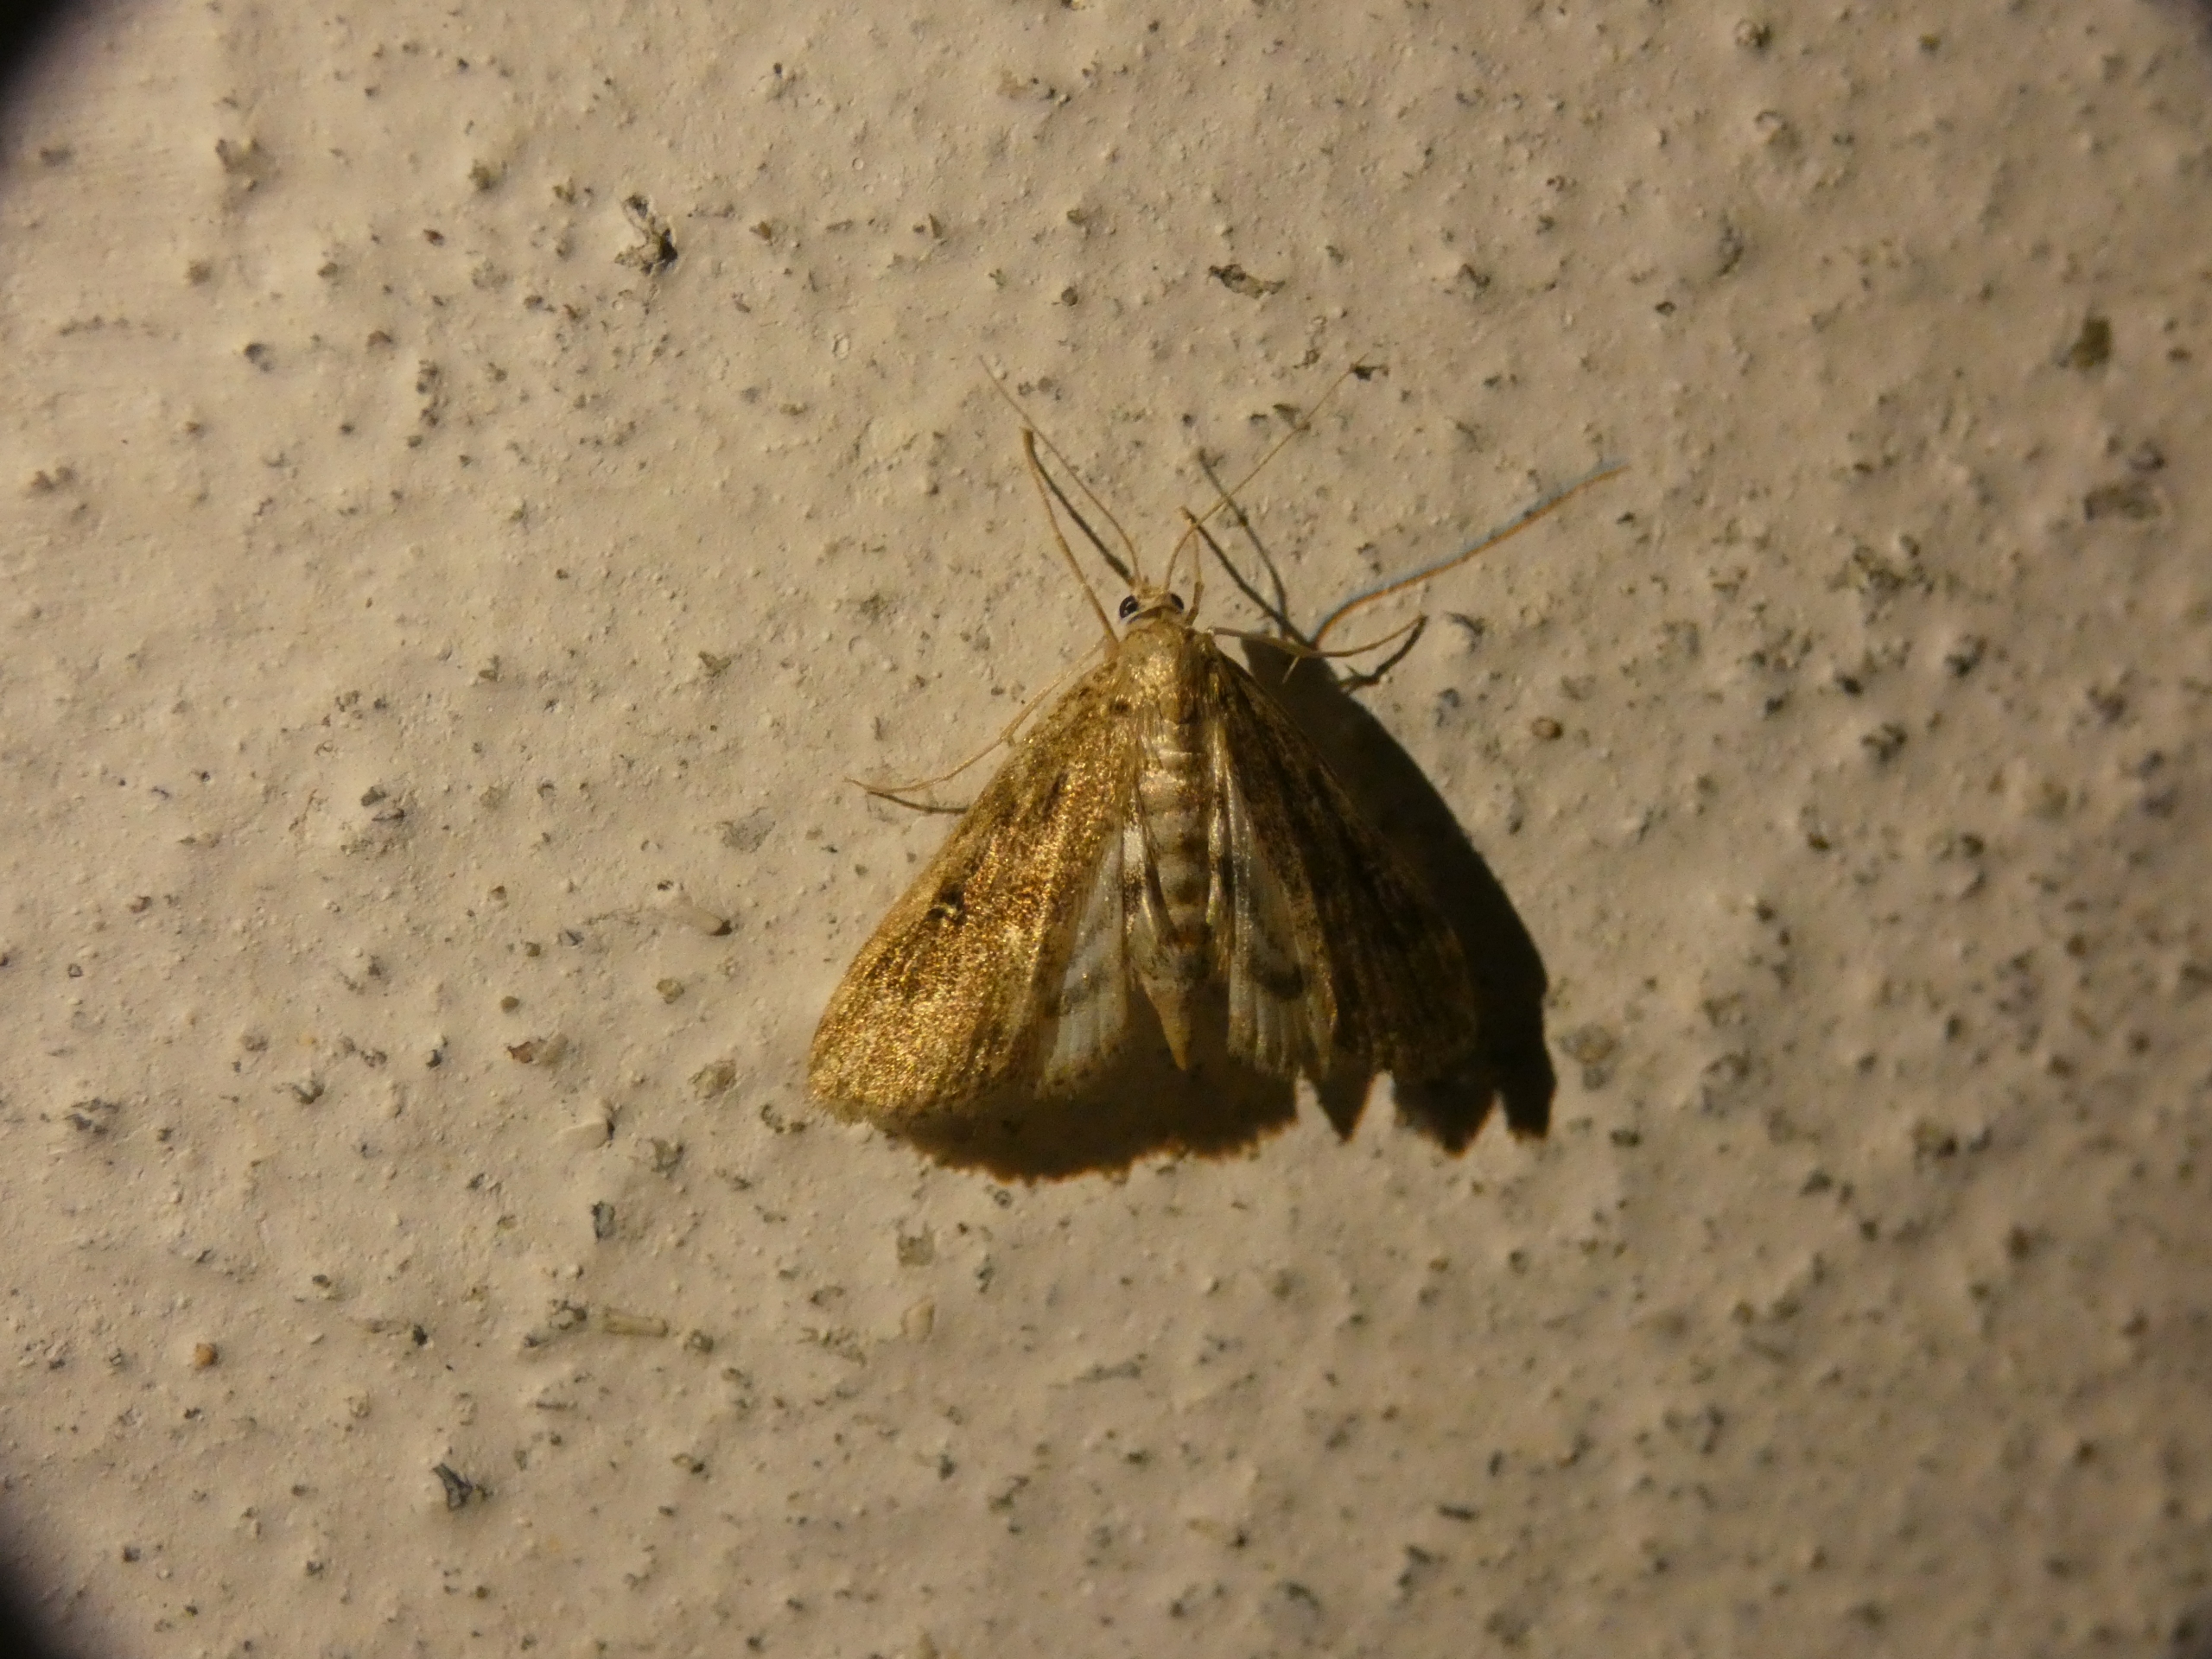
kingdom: Animalia
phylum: Arthropoda
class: Insecta
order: Lepidoptera
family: Crambidae
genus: Parapoynx
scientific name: Parapoynx stratiotata
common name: Vandpesthalvmøl
